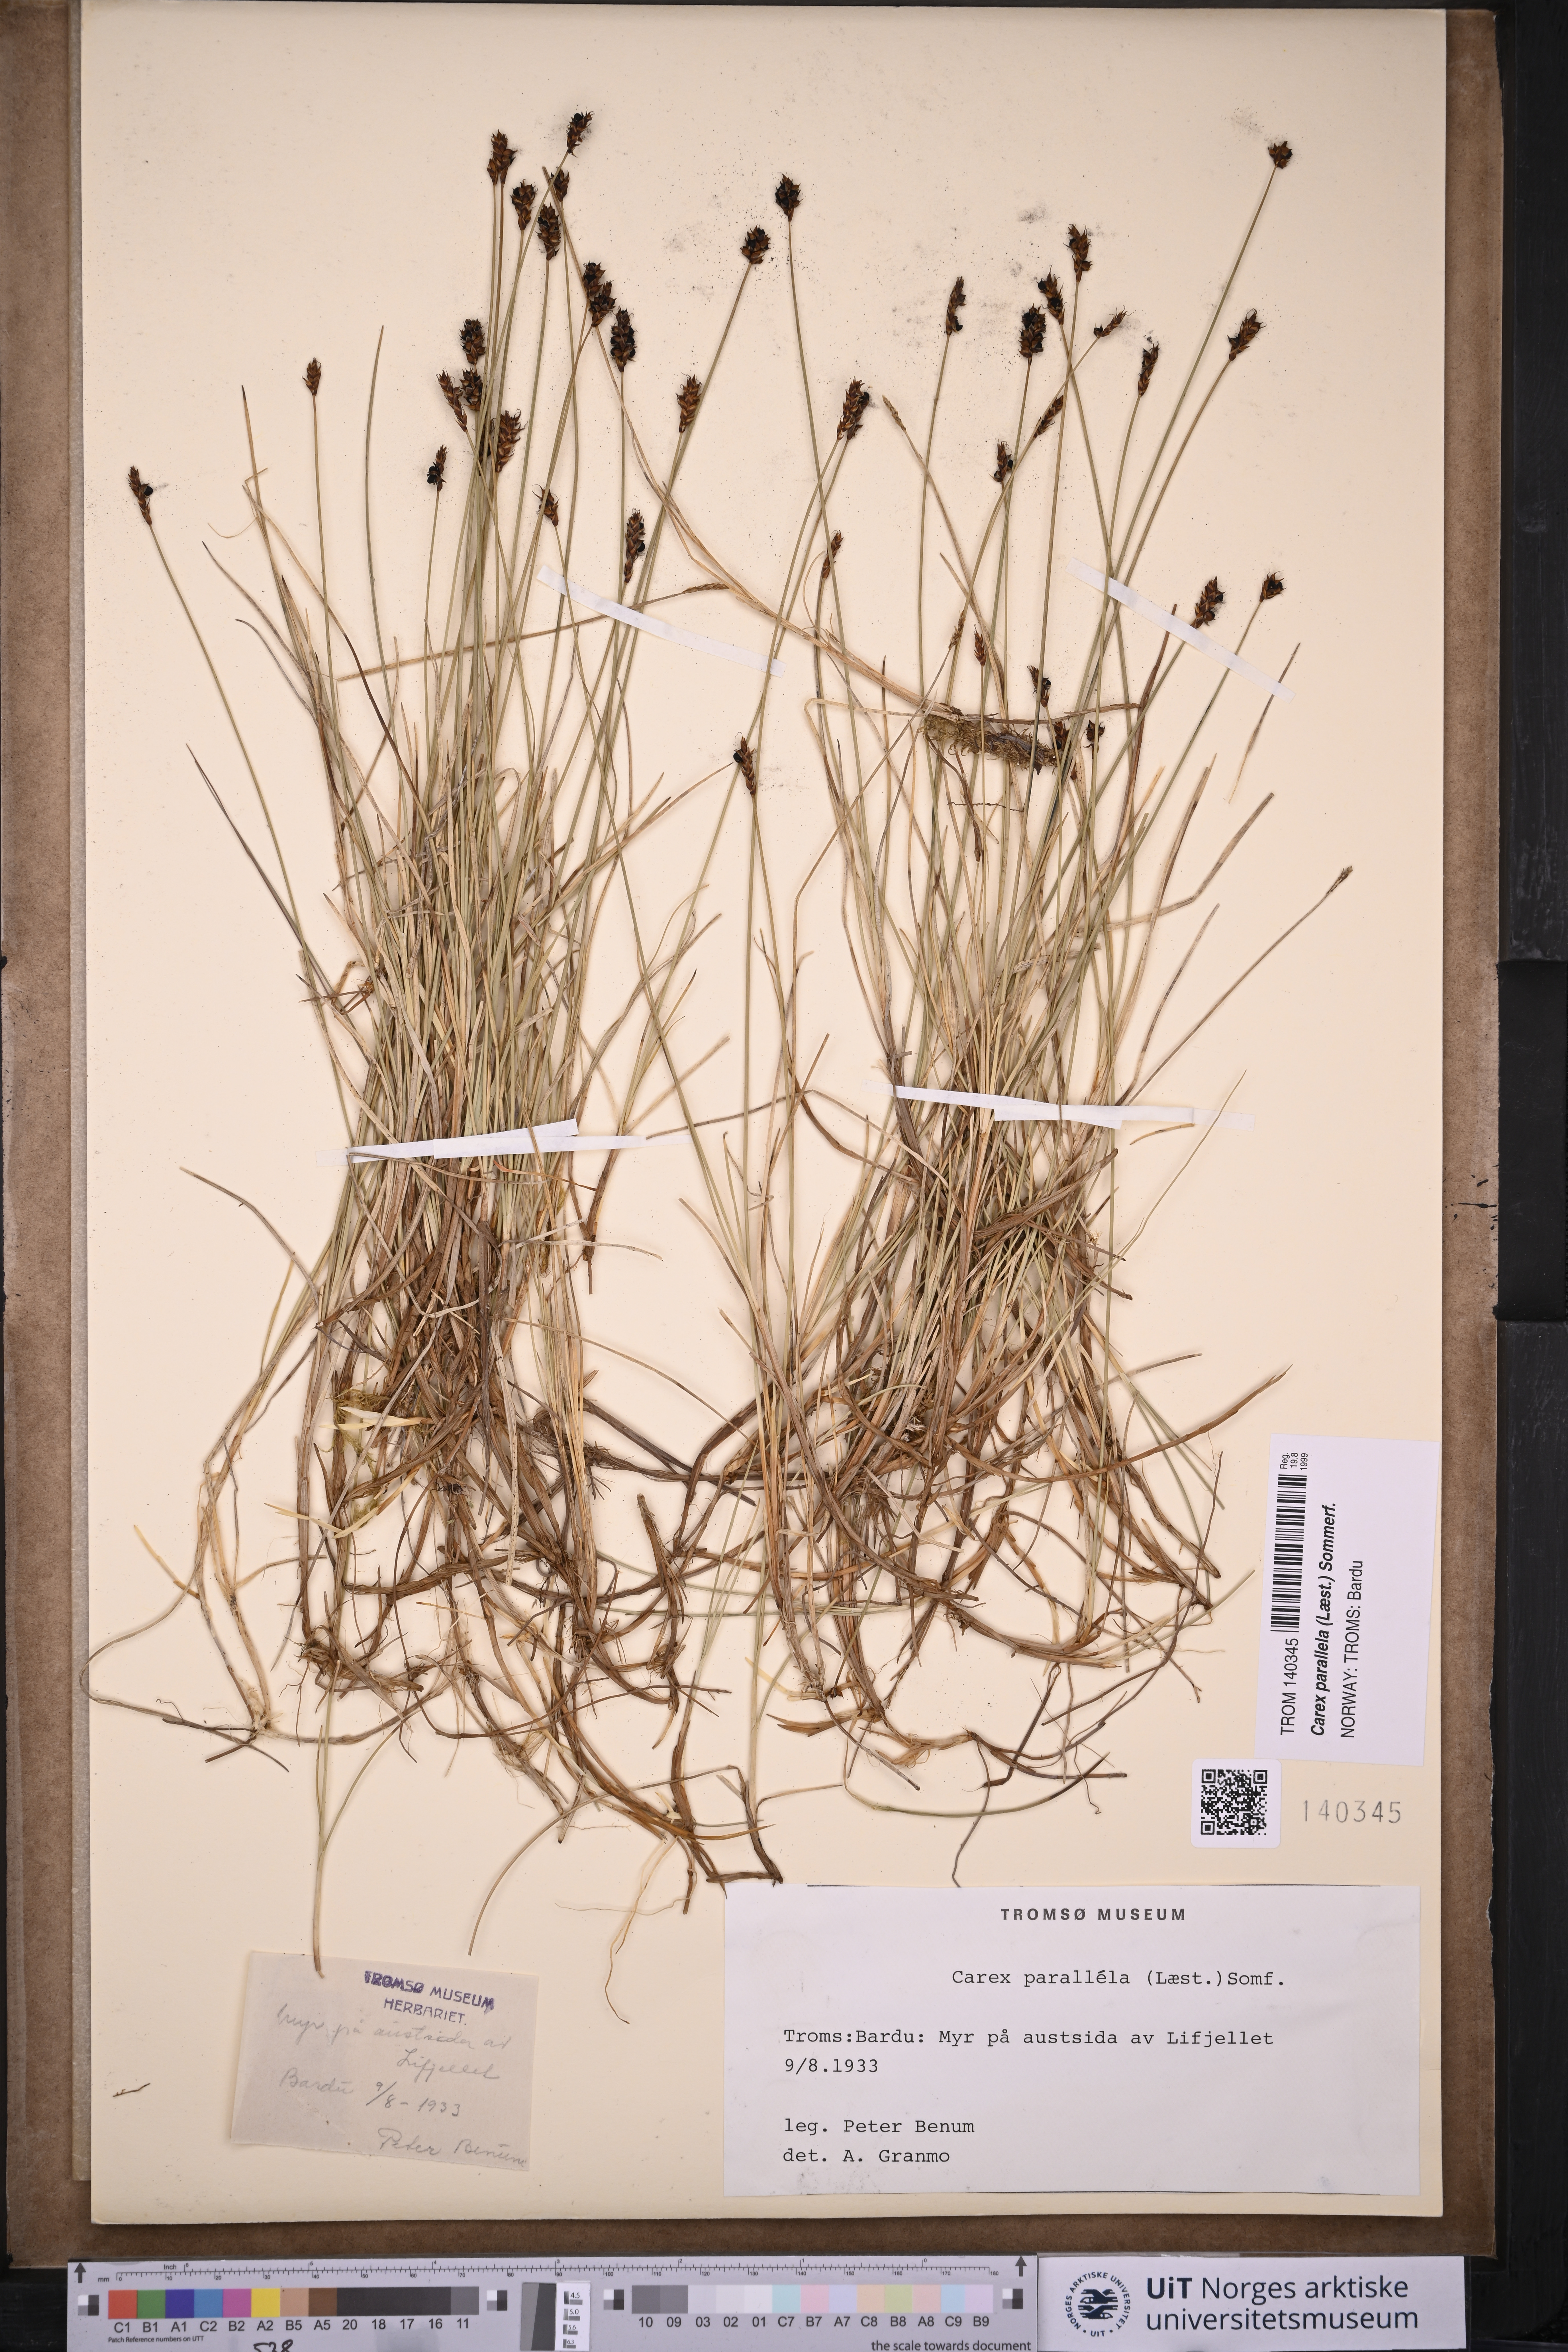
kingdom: Plantae
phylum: Tracheophyta
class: Liliopsida
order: Poales
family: Cyperaceae
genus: Carex
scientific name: Carex parallela
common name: Parallel sedge
